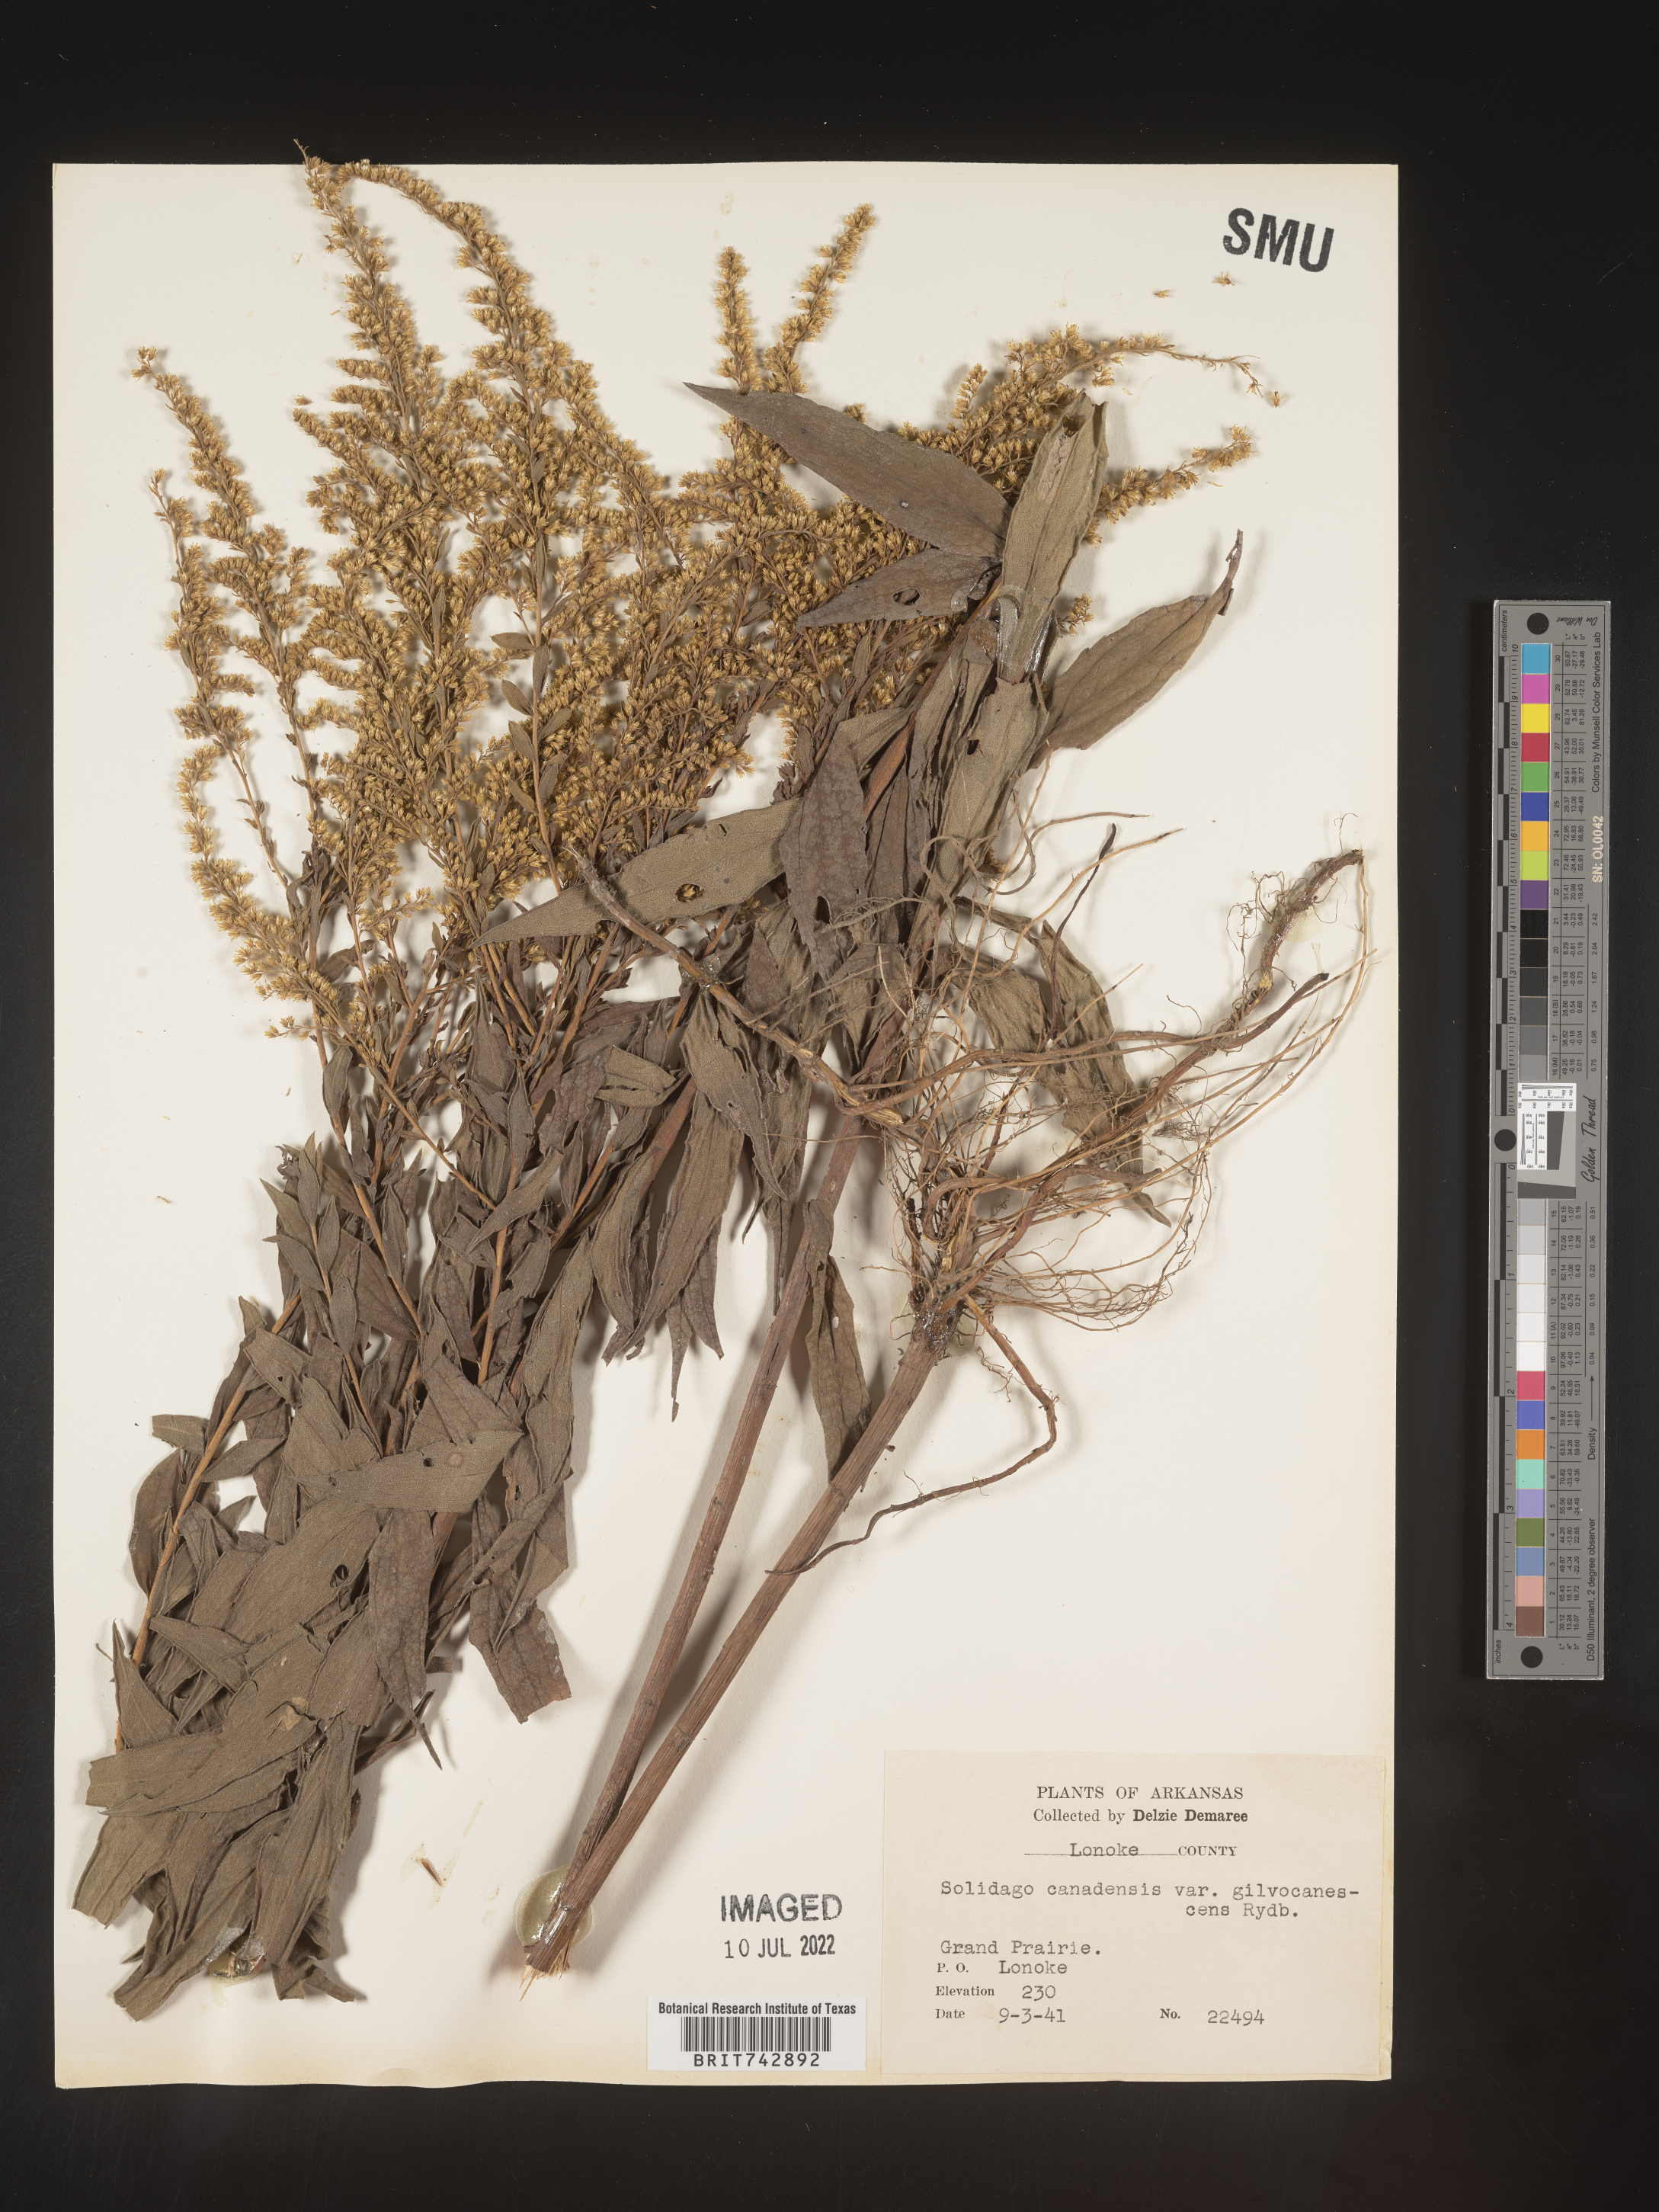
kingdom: Plantae
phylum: Tracheophyta
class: Magnoliopsida
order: Asterales
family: Asteraceae
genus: Solidago
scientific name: Solidago altissima
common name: Late goldenrod
